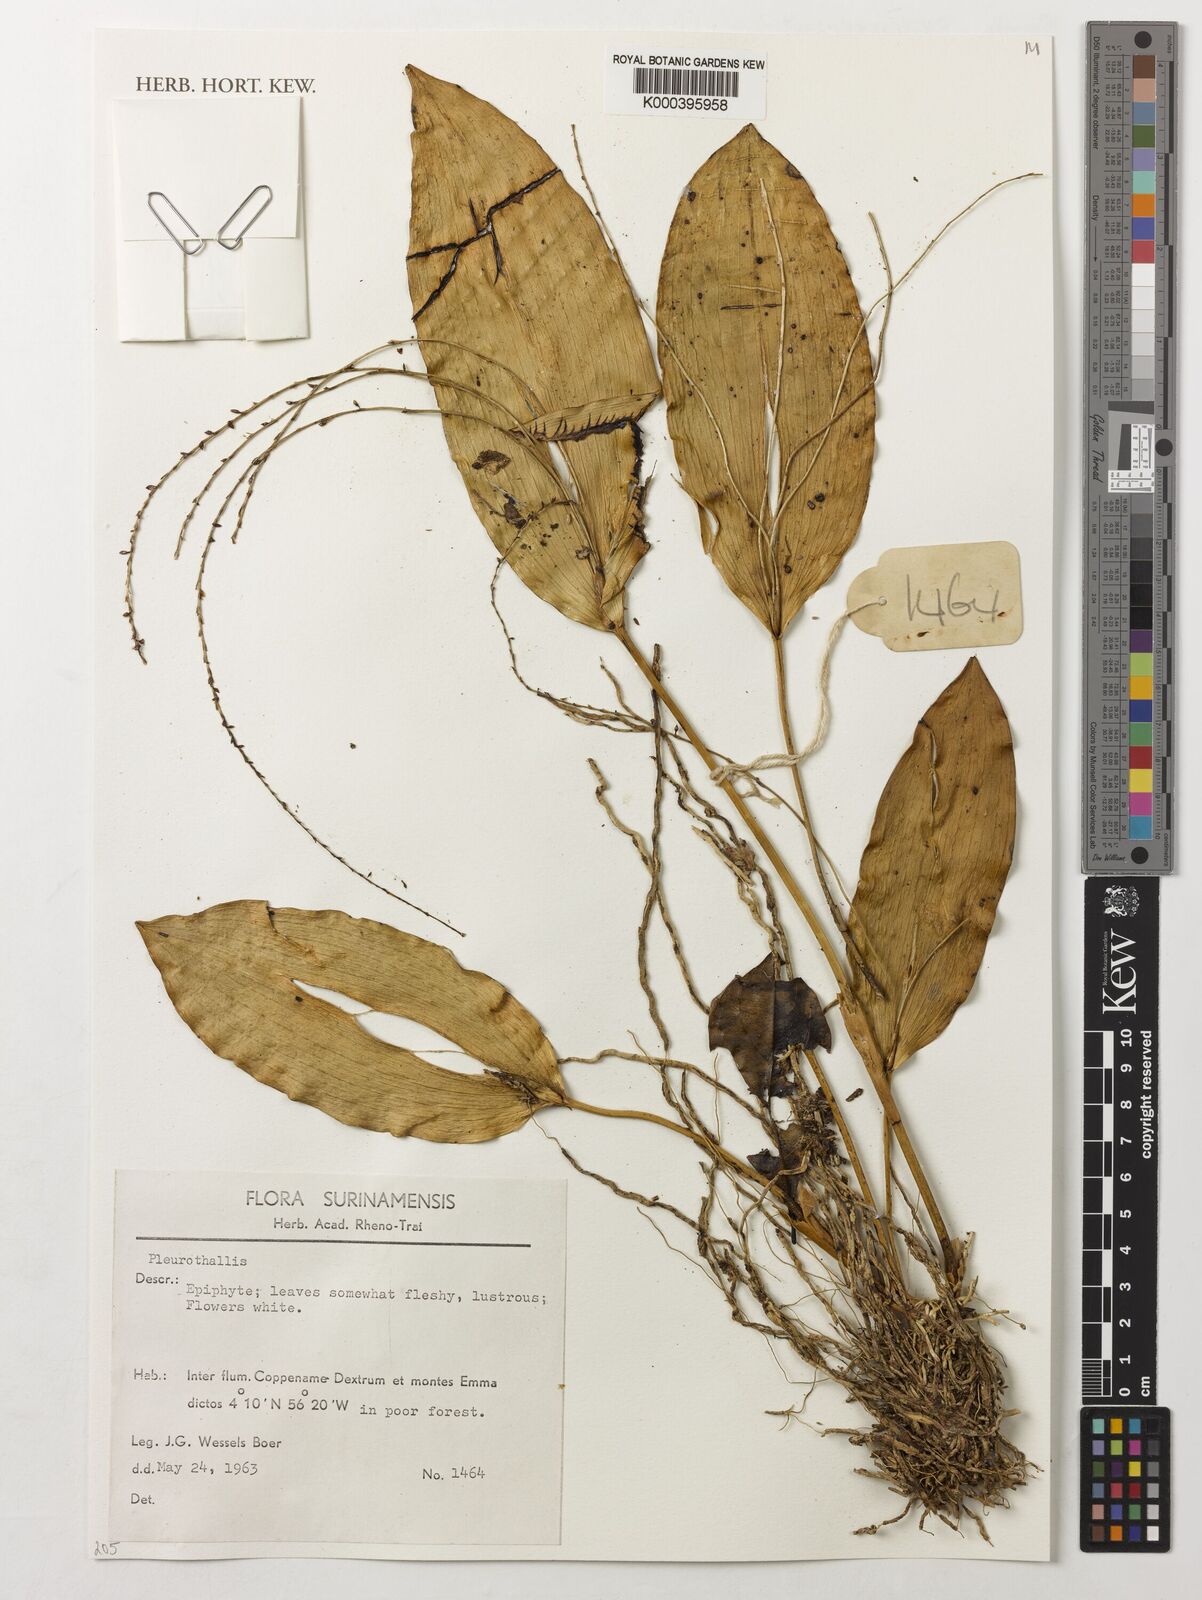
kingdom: Plantae
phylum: Tracheophyta
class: Liliopsida
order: Asparagales
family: Orchidaceae
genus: Pleurothallis
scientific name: Pleurothallis
